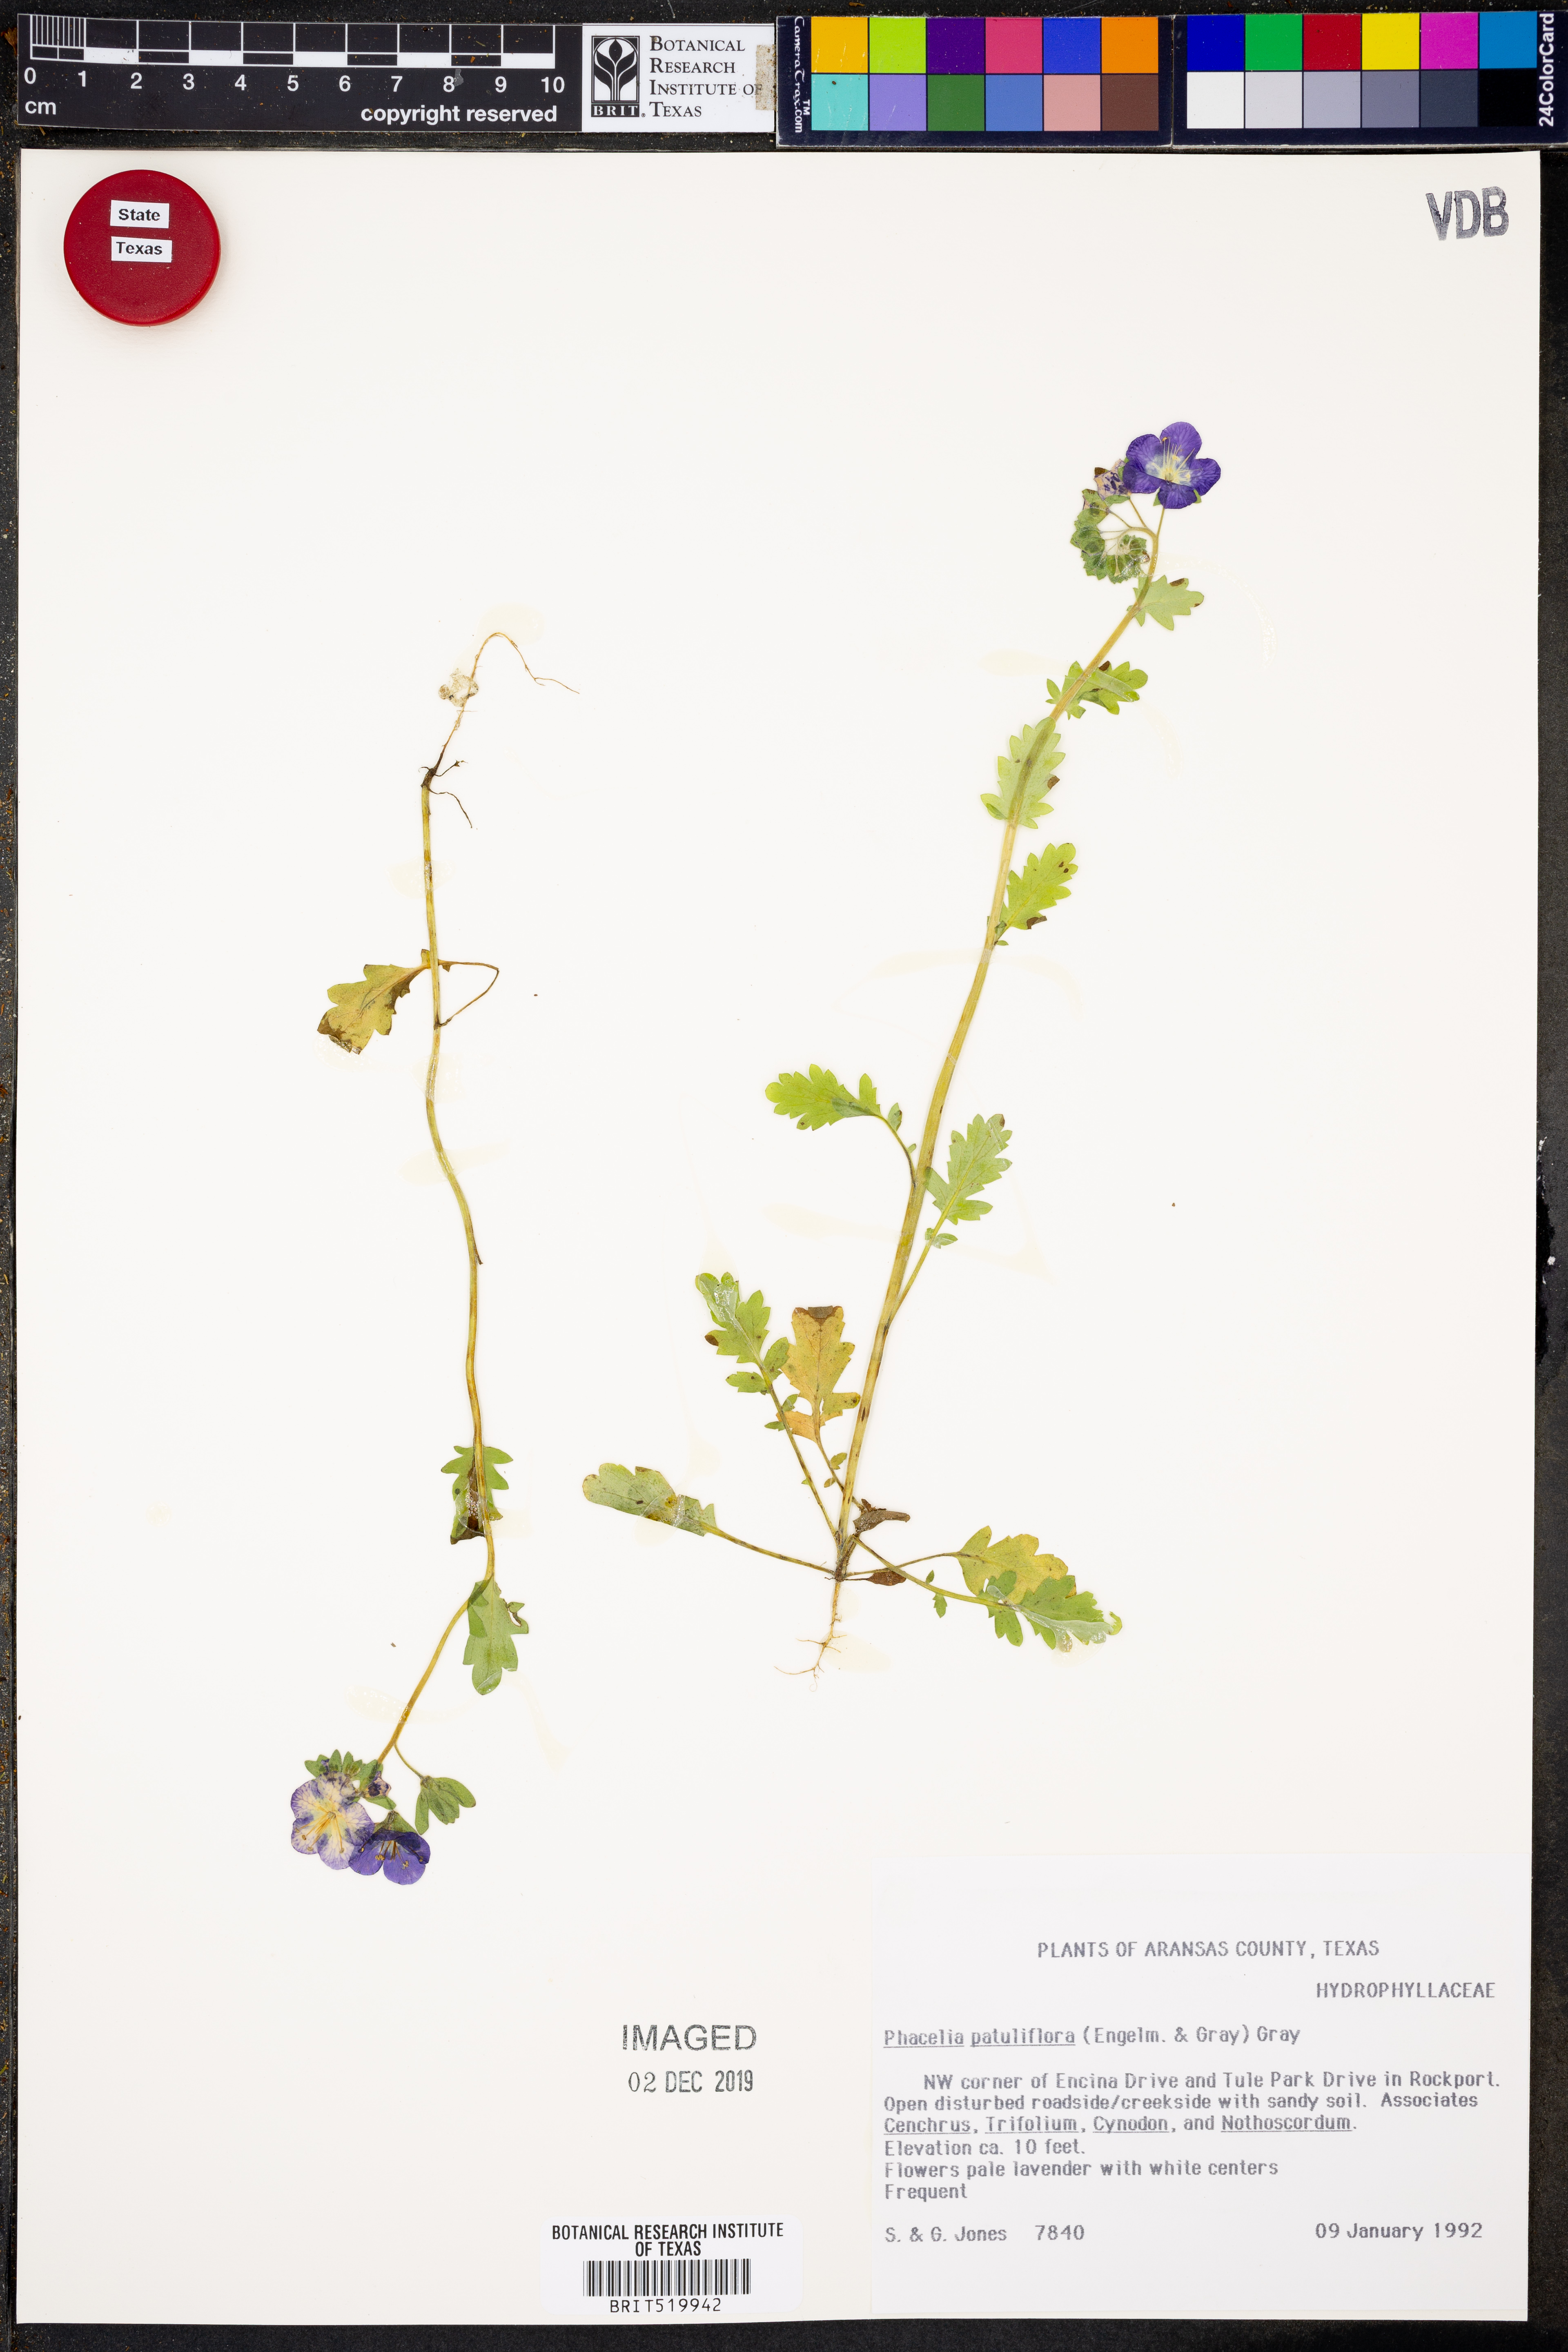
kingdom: Plantae
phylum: Tracheophyta
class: Magnoliopsida
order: Boraginales
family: Hydrophyllaceae
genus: Phacelia
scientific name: Phacelia patuliflora
